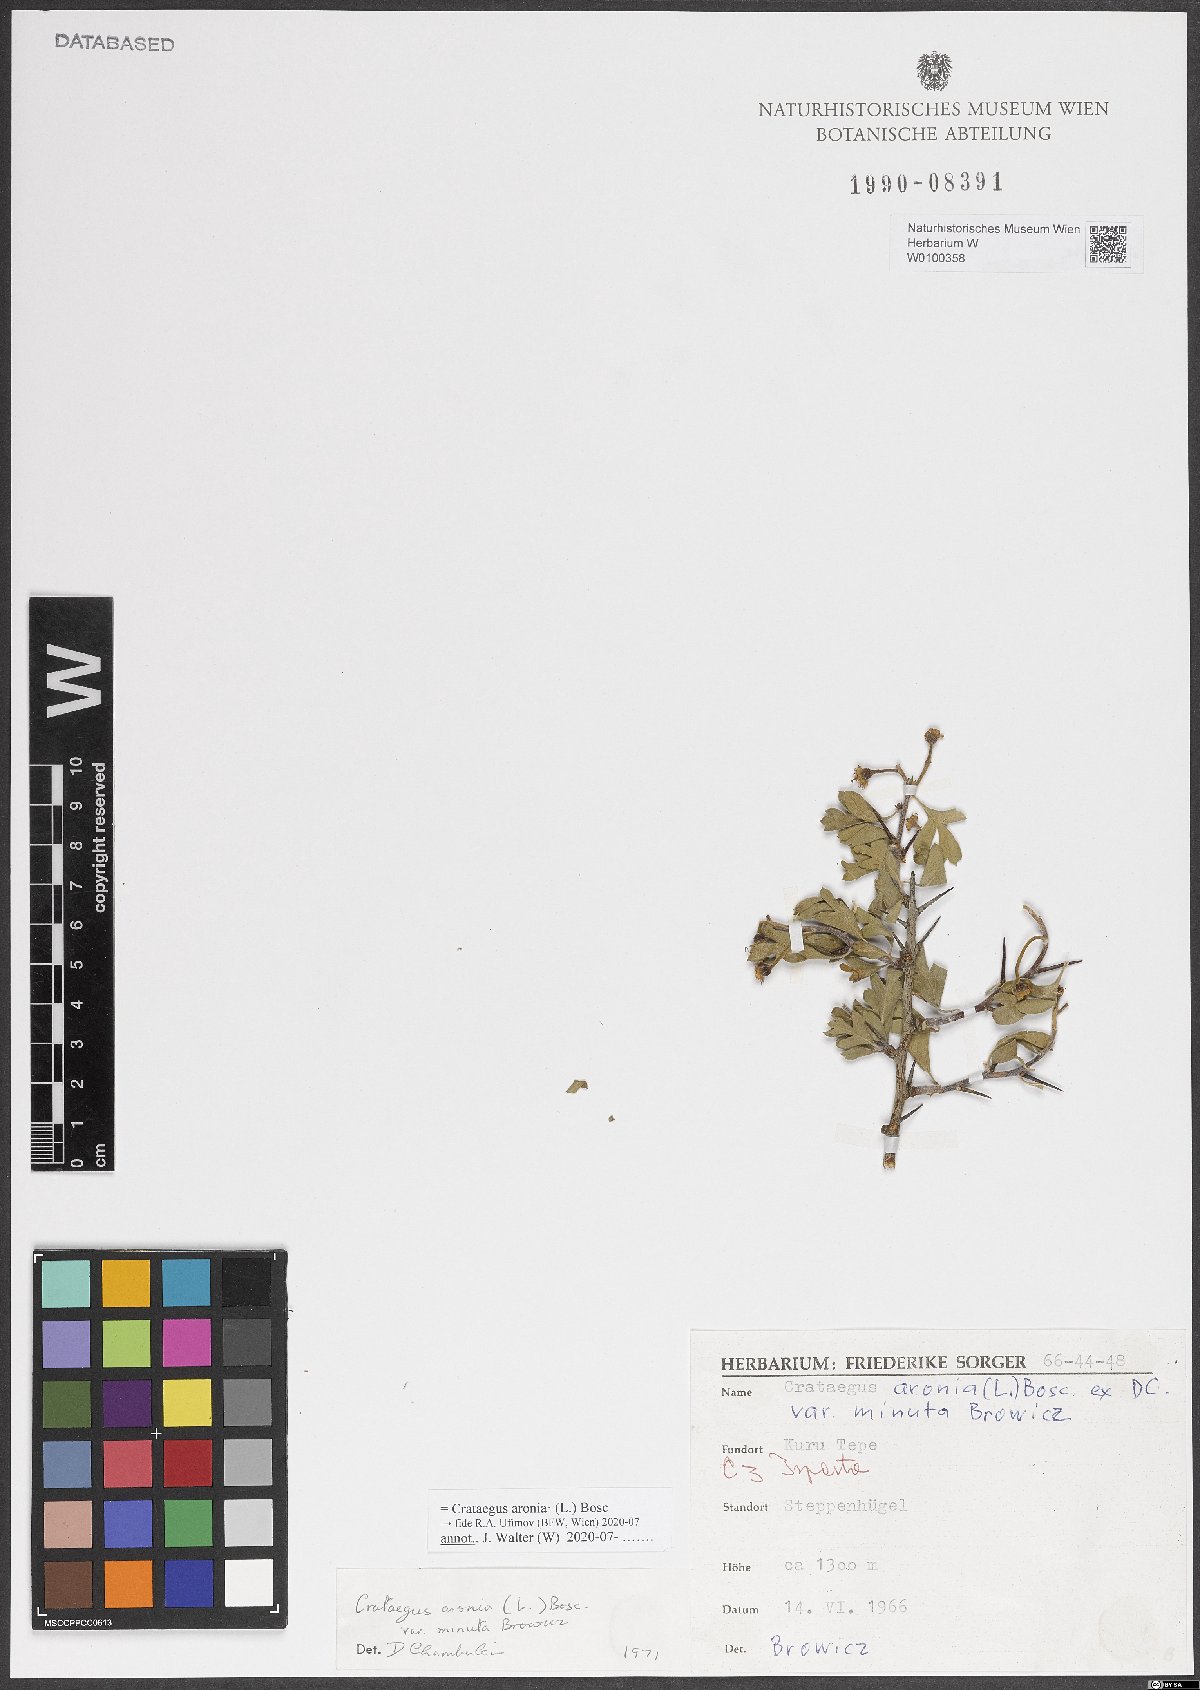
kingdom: Plantae
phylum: Tracheophyta
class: Magnoliopsida
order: Rosales
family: Rosaceae
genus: Crataegus
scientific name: Crataegus azarolus
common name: Azarole
